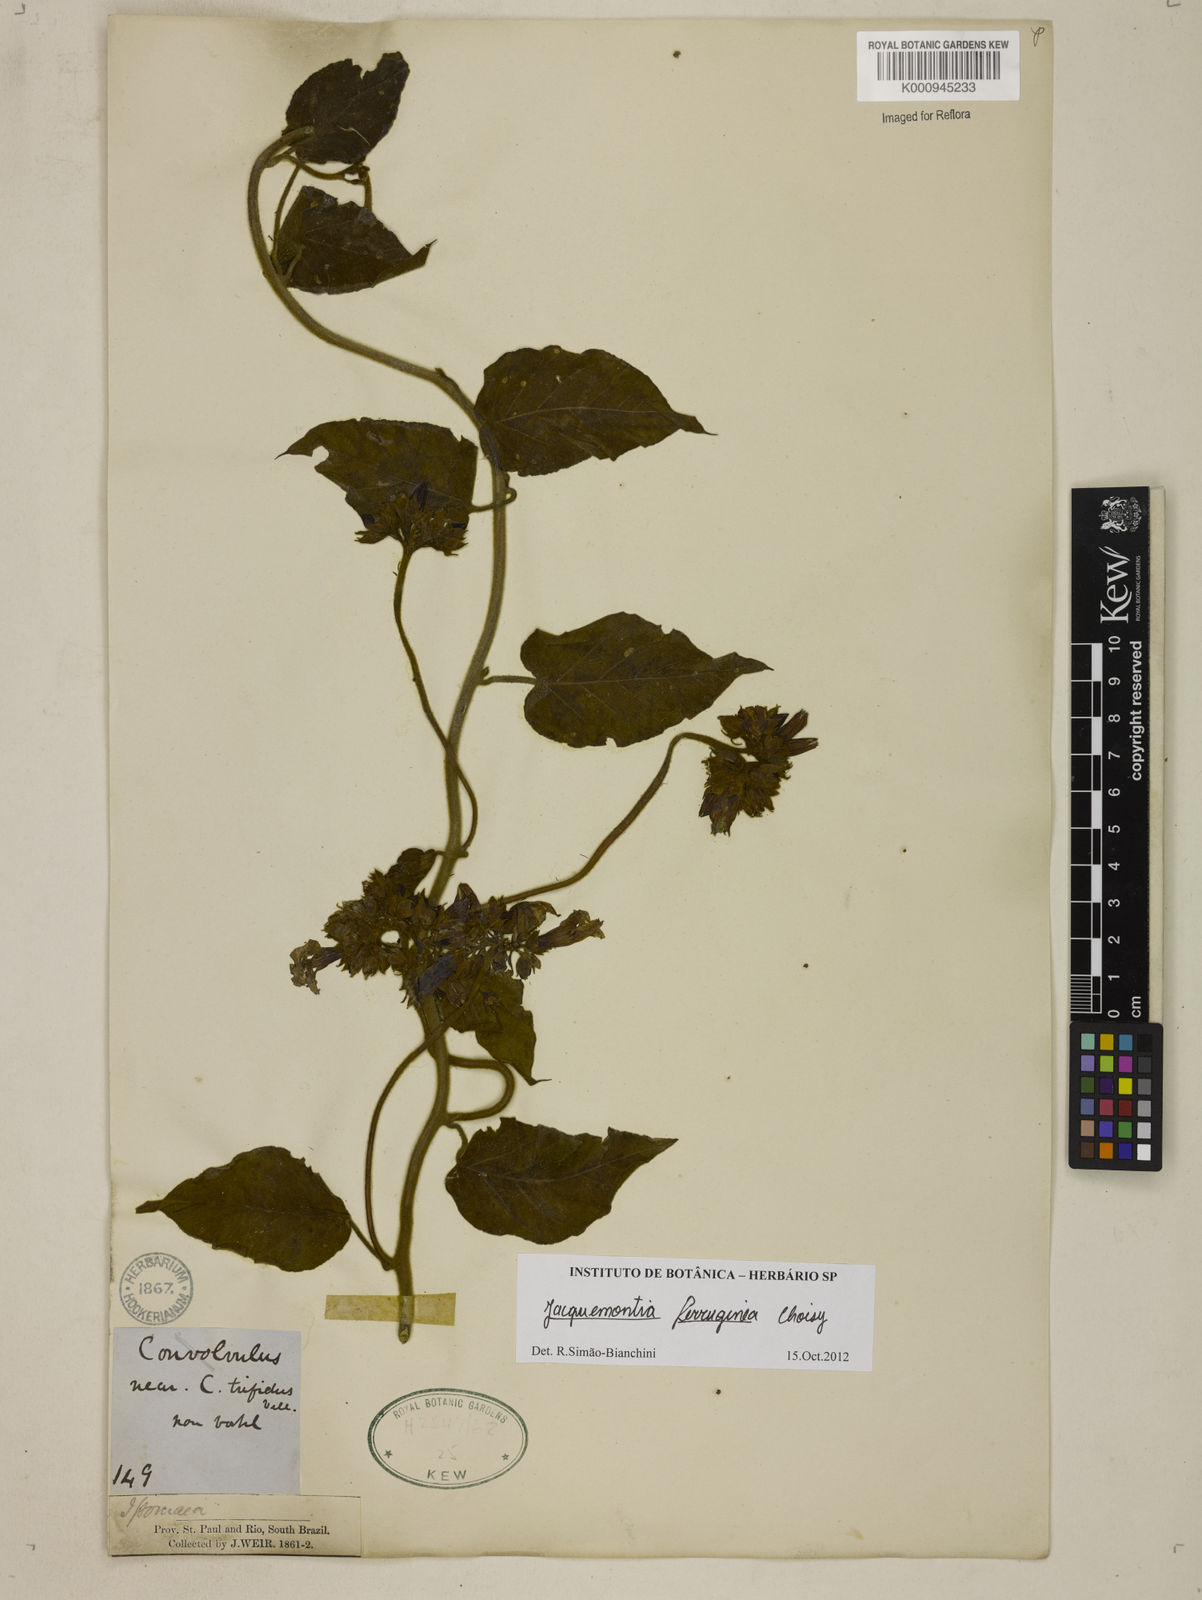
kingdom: Plantae
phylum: Tracheophyta
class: Magnoliopsida
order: Solanales
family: Convolvulaceae
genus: Jacquemontia
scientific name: Jacquemontia
